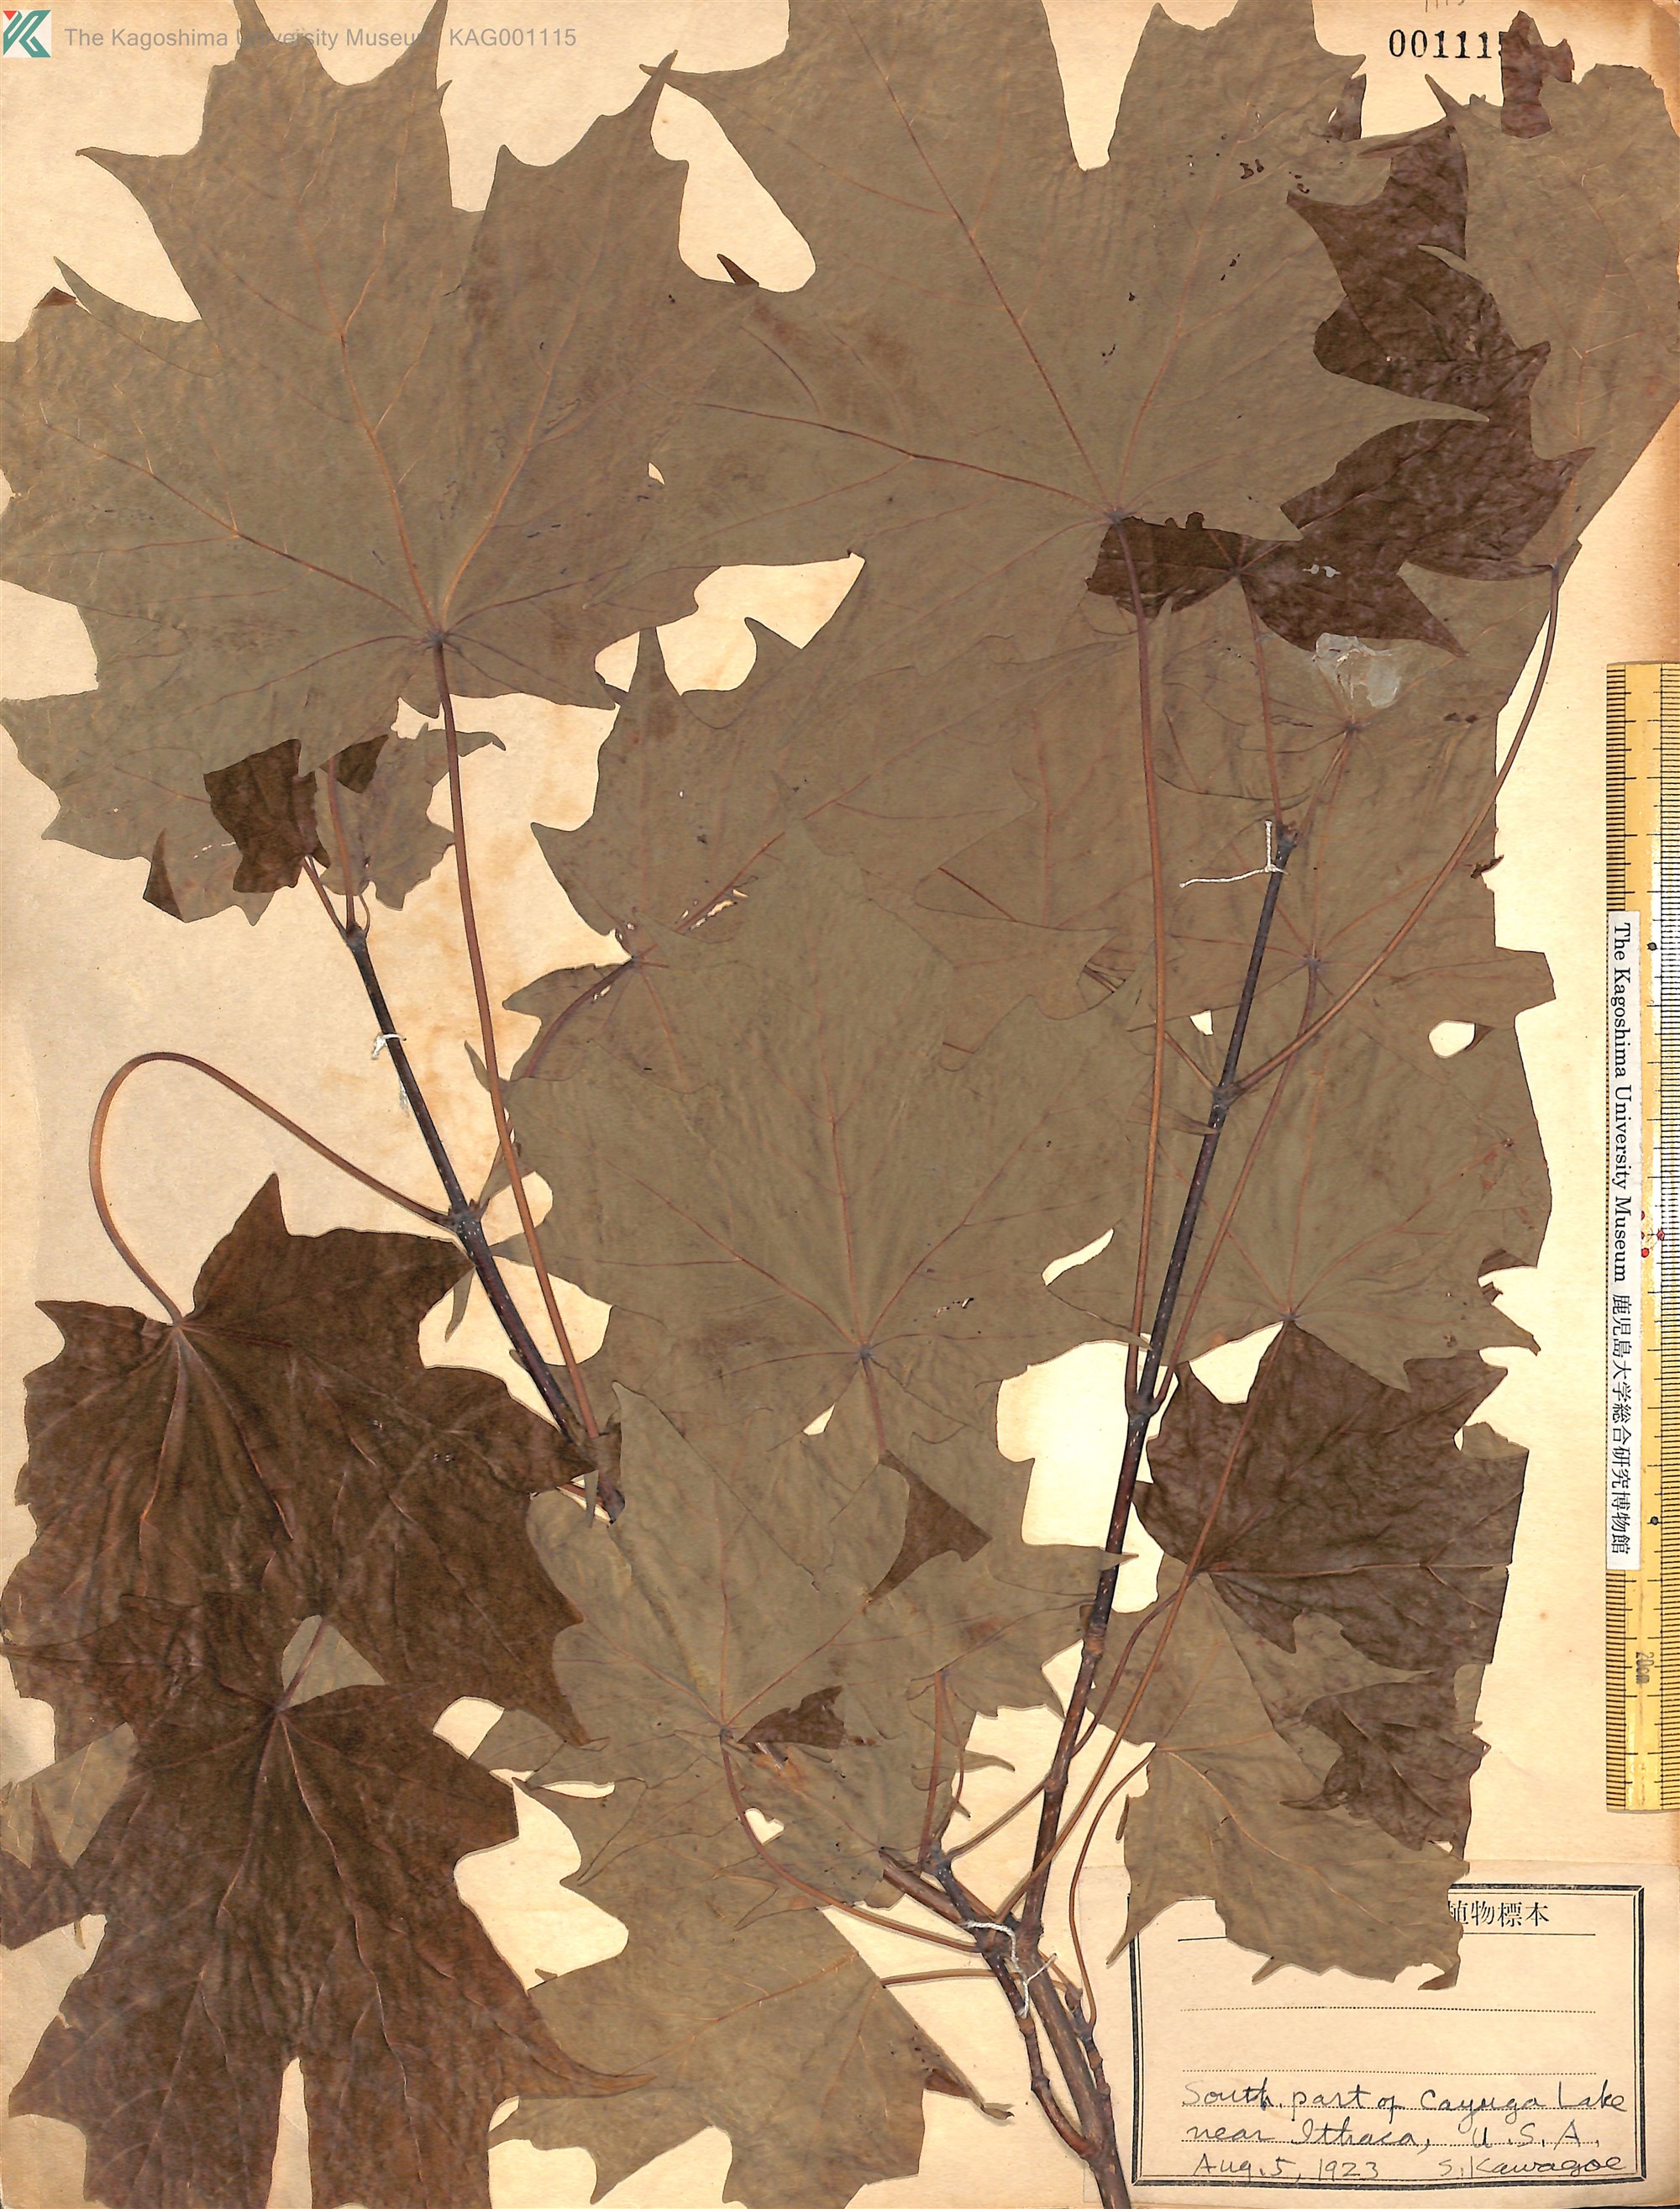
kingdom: Plantae
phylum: Tracheophyta
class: Magnoliopsida
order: Sapindales
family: Sapindaceae
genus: Acer
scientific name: Acer
